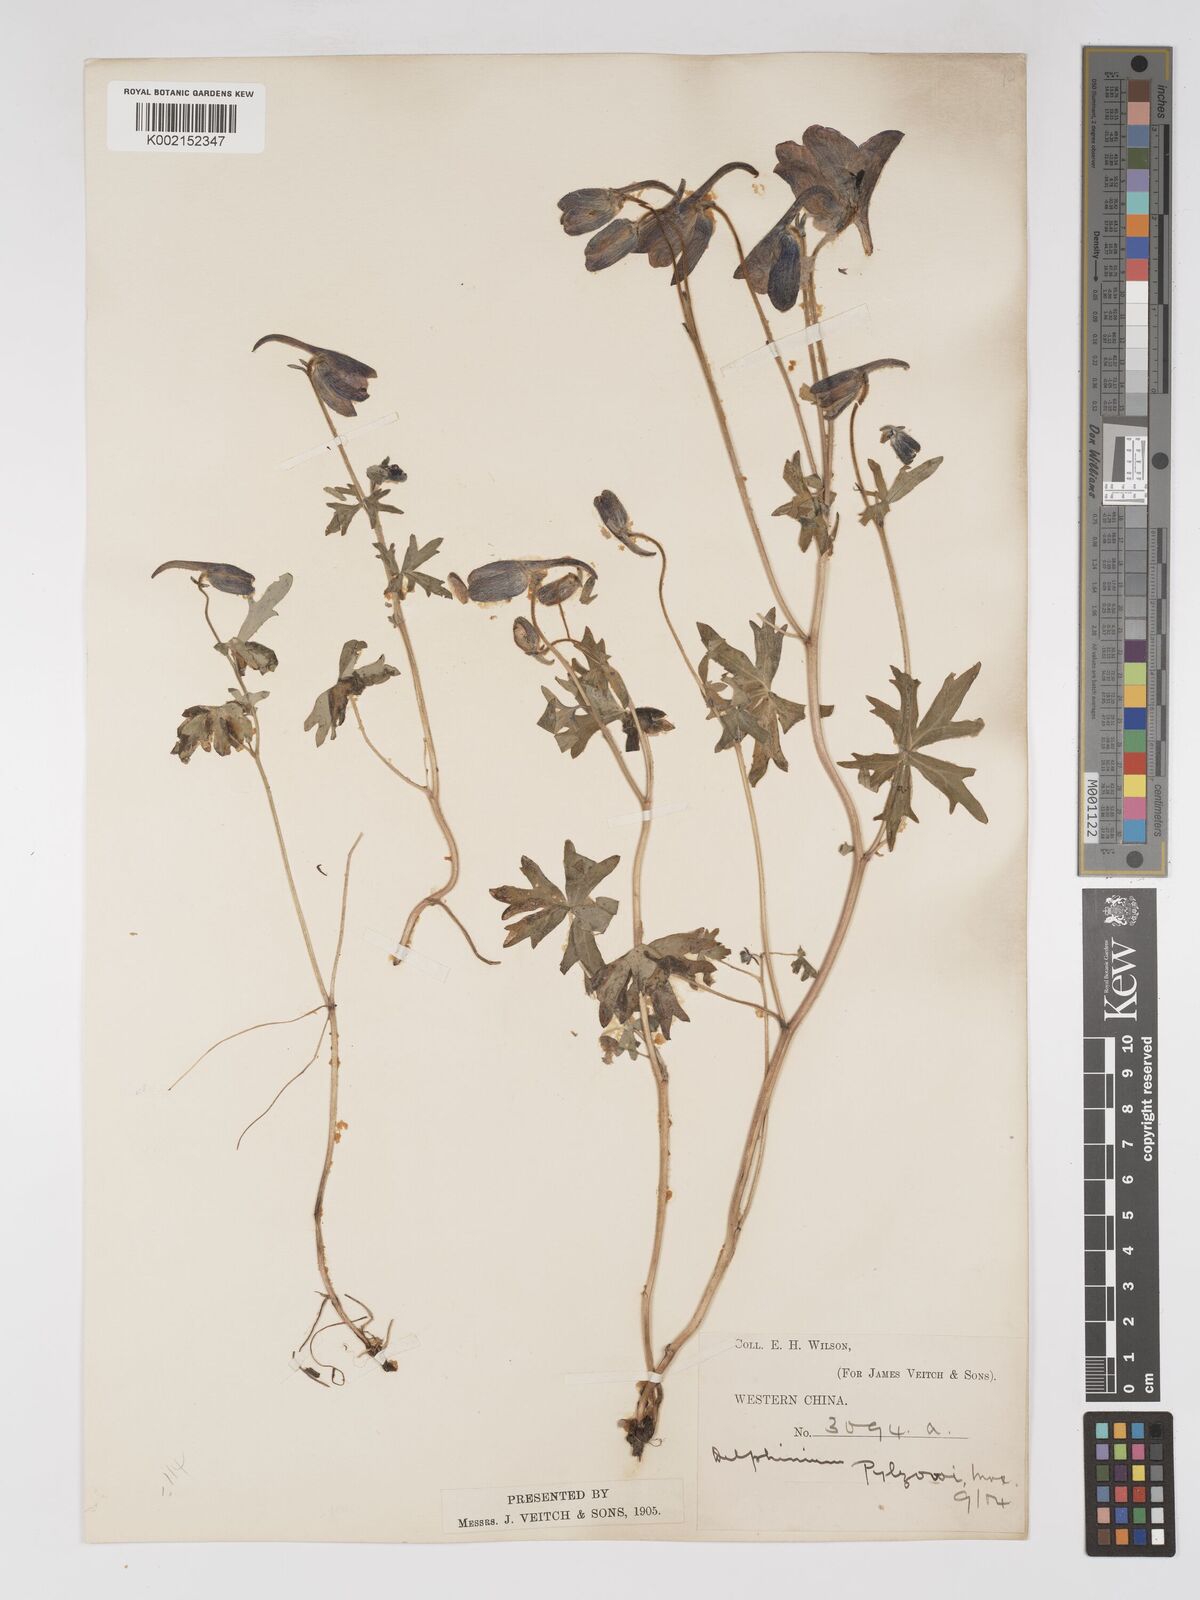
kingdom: Plantae
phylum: Tracheophyta
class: Magnoliopsida
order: Ranunculales
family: Ranunculaceae
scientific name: Ranunculaceae
